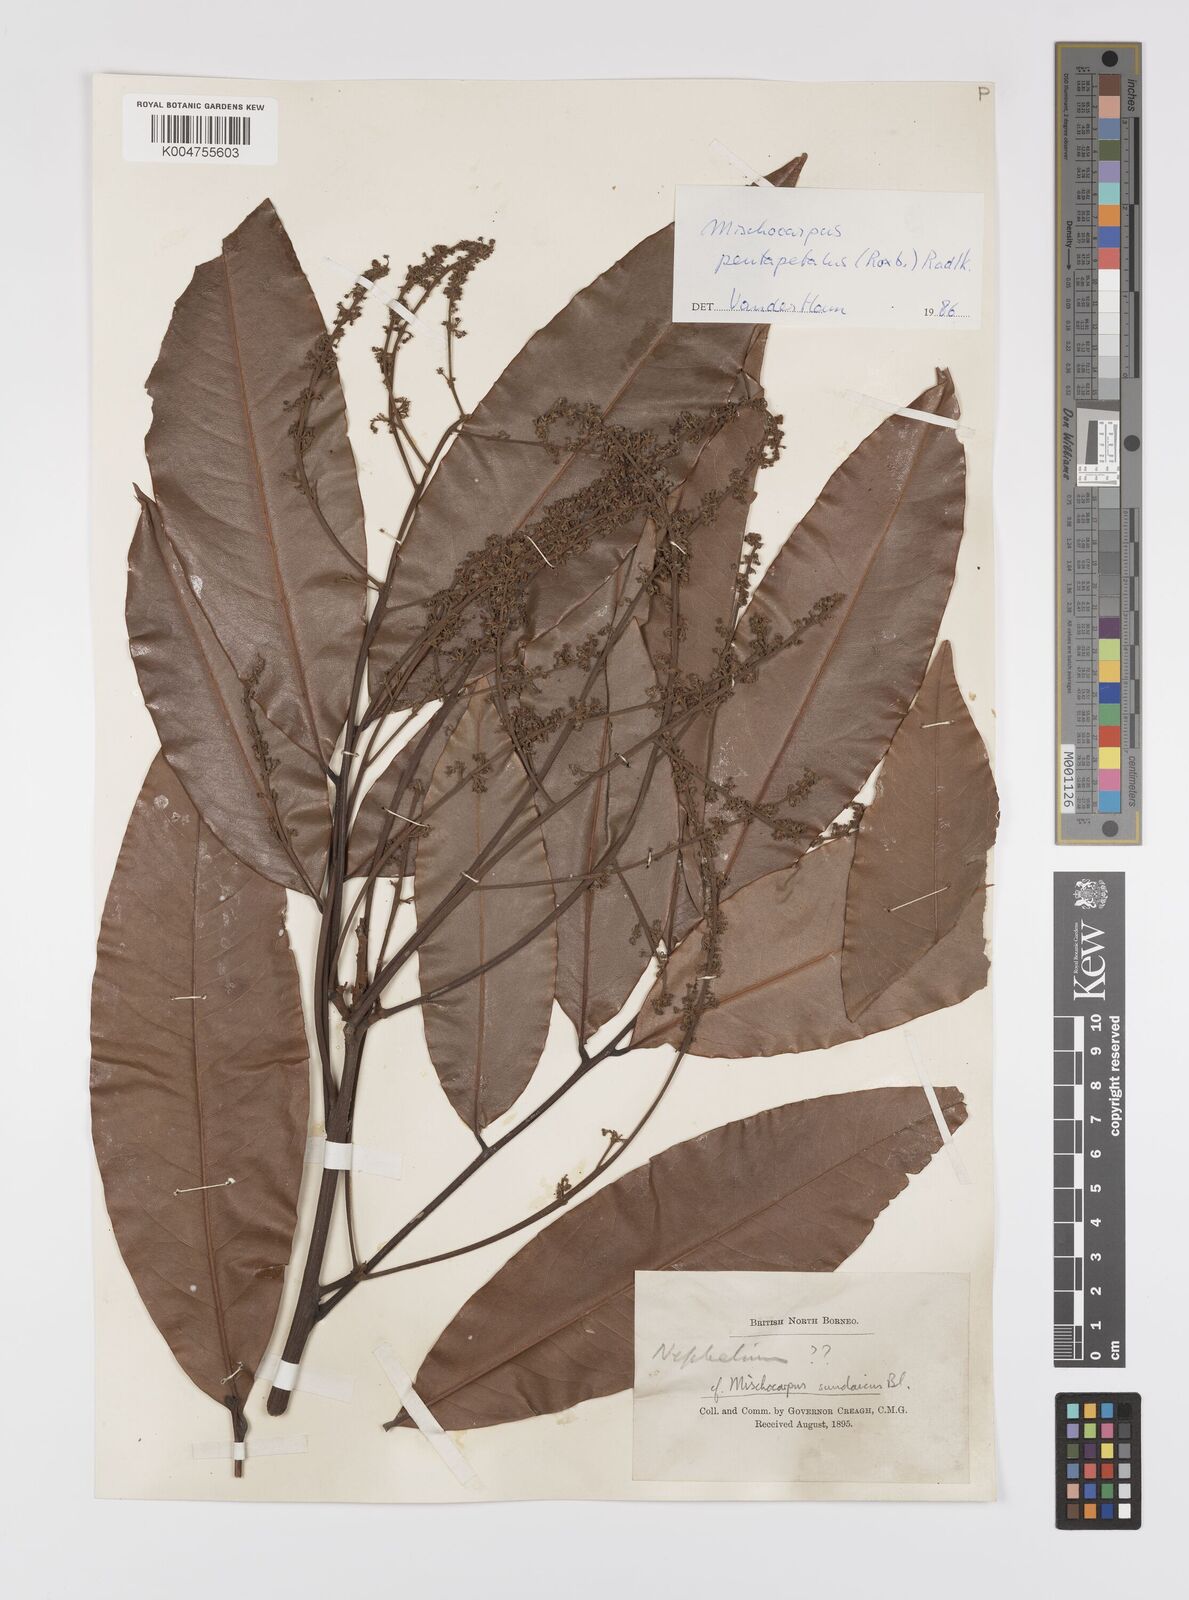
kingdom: Plantae
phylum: Tracheophyta
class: Magnoliopsida
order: Sapindales
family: Sapindaceae
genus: Mischocarpus
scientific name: Mischocarpus pentapetalus
